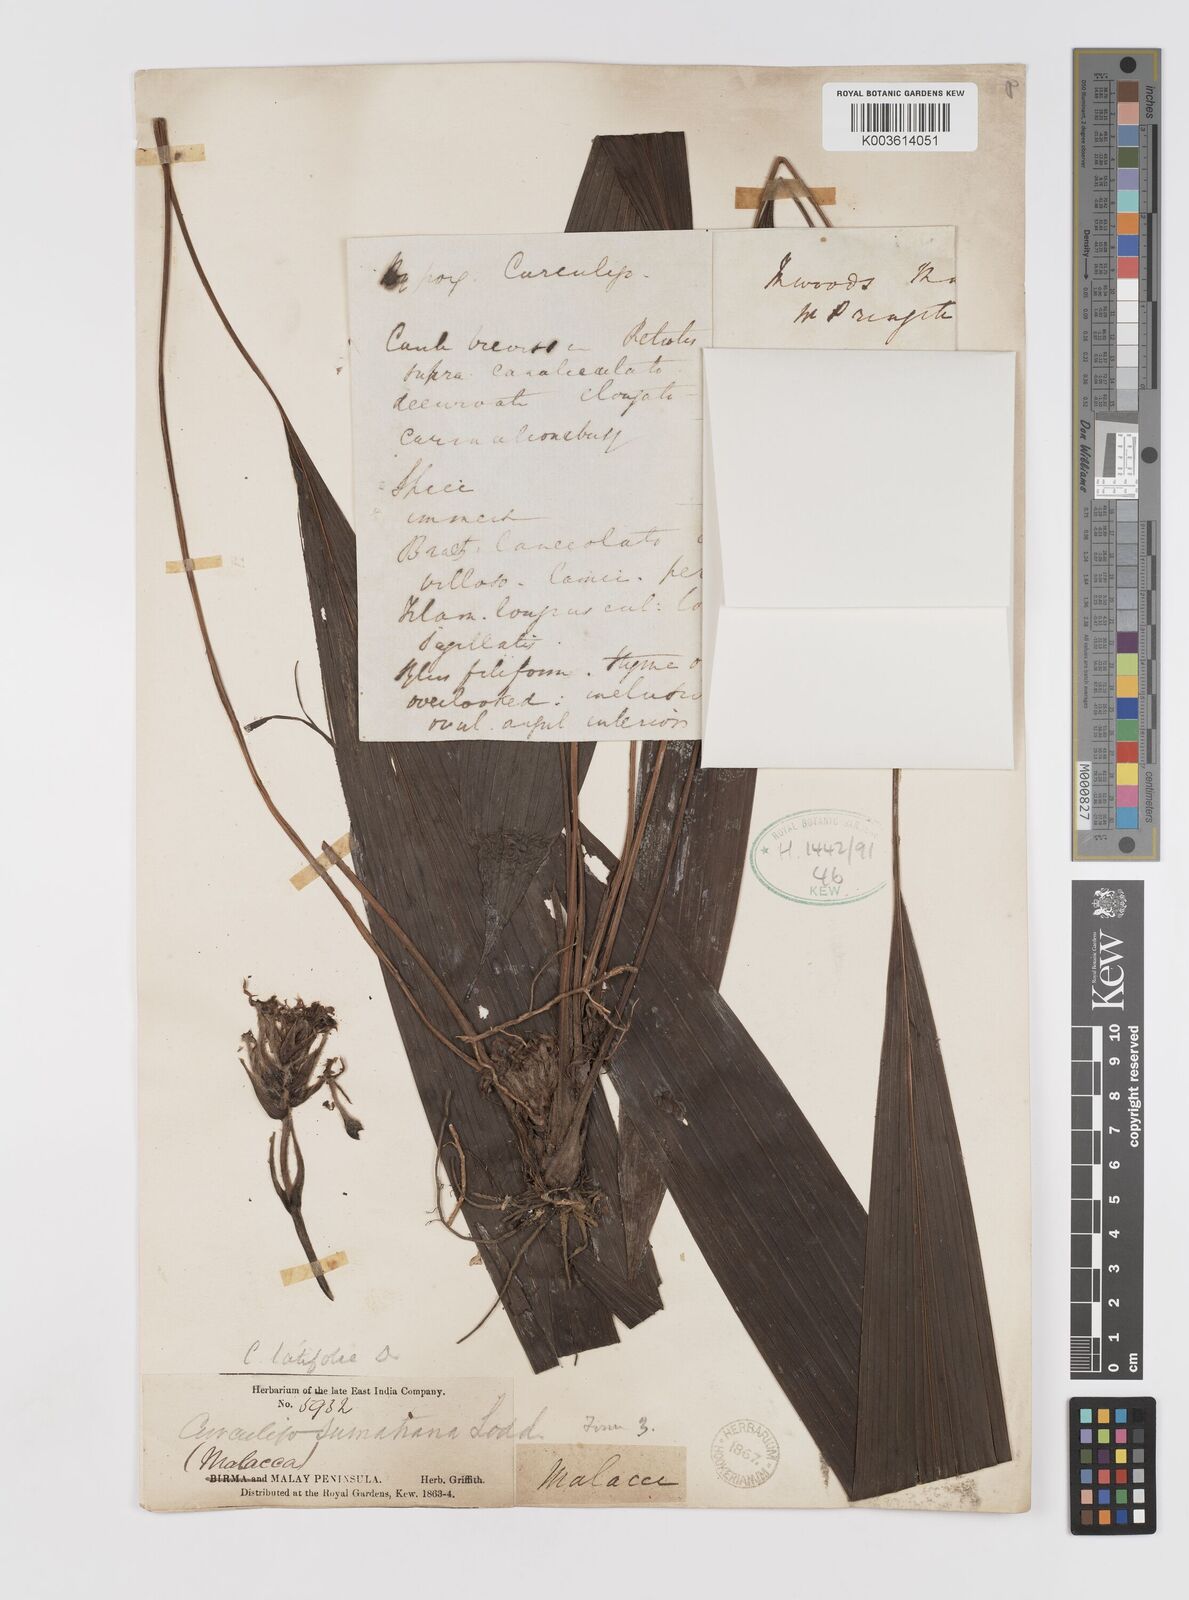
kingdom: Plantae
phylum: Tracheophyta
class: Liliopsida
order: Asparagales
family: Hypoxidaceae
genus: Curculigo
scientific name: Curculigo latifolia
